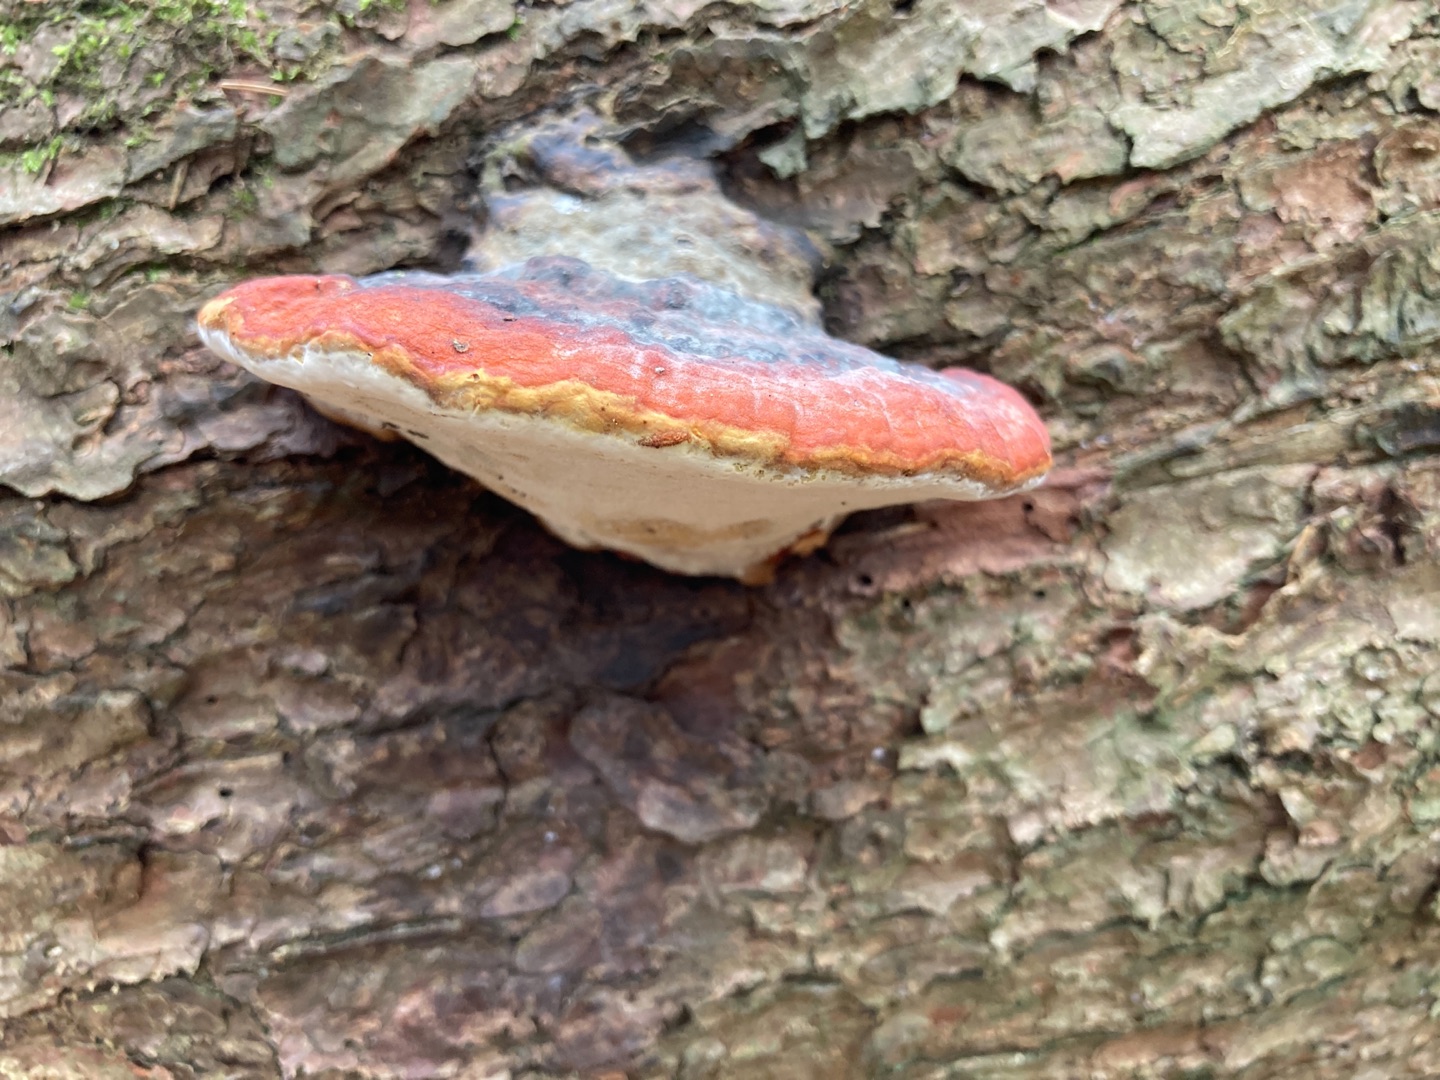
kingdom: Fungi
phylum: Basidiomycota
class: Agaricomycetes
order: Polyporales
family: Fomitopsidaceae
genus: Fomitopsis
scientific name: Fomitopsis pinicola
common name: Randbæltet hovporesvamp
